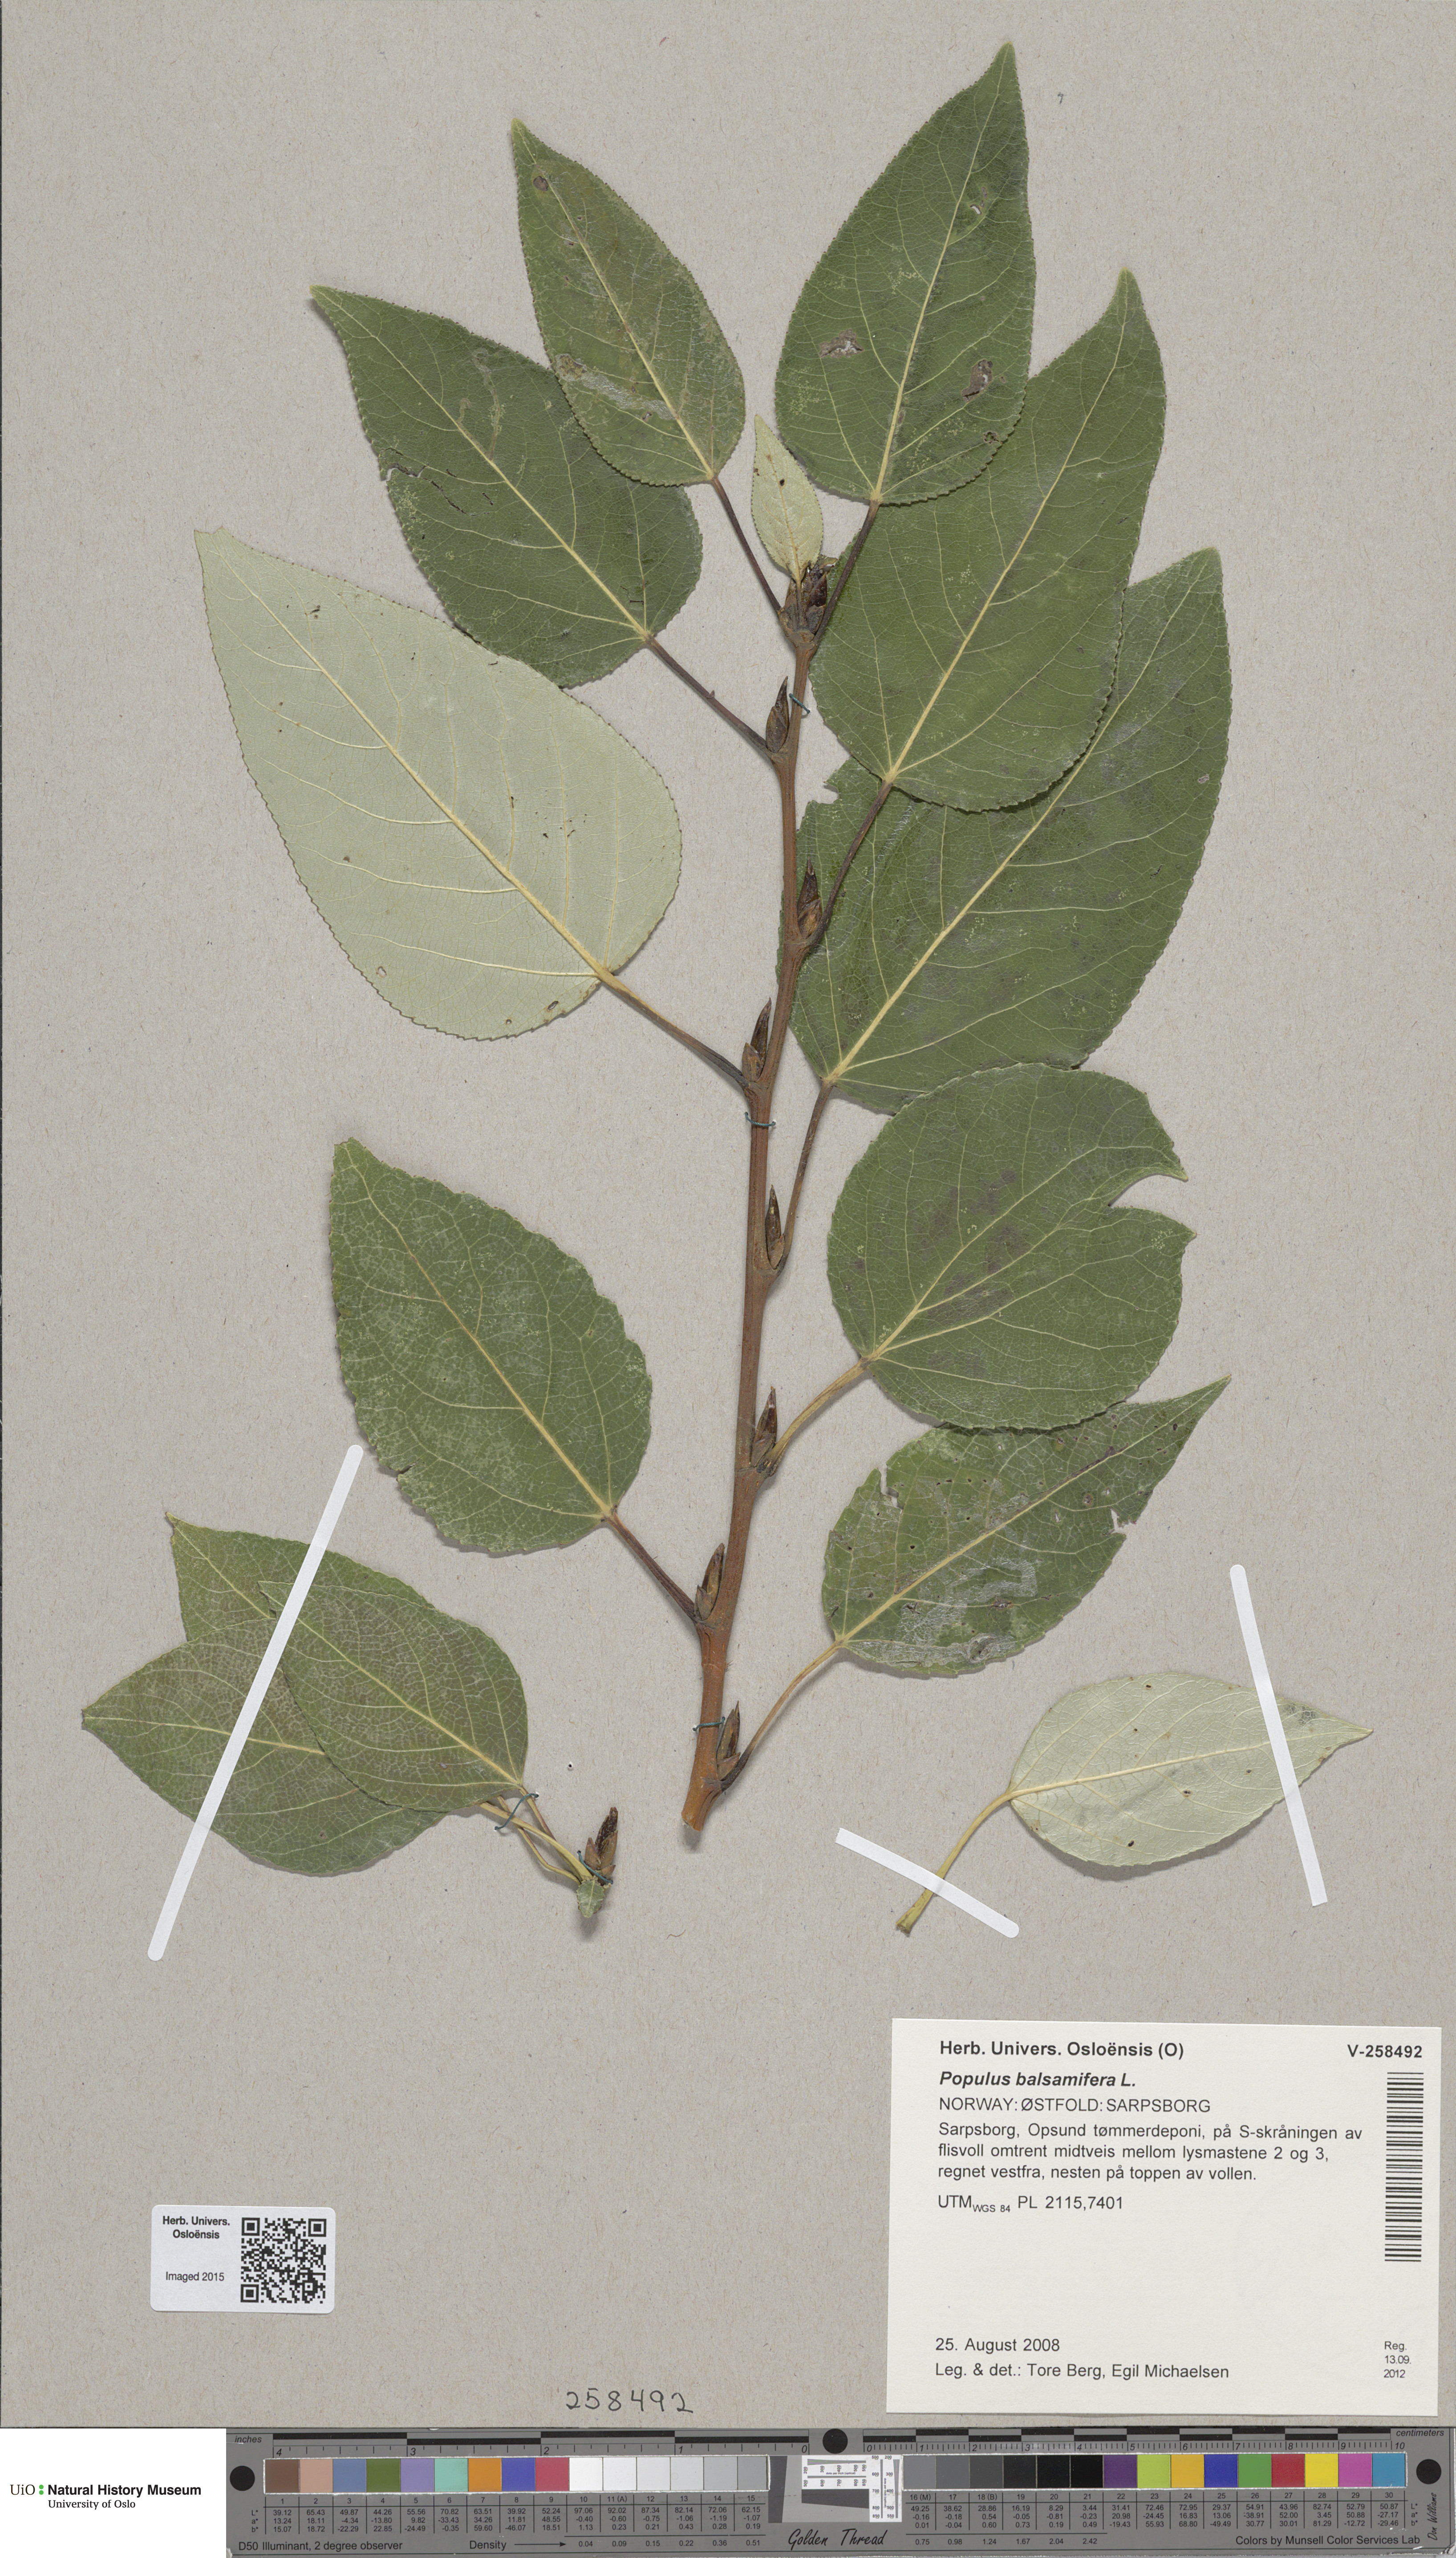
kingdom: Plantae
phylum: Tracheophyta
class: Magnoliopsida
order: Malpighiales
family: Salicaceae
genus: Populus
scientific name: Populus trichocarpa
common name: Black cottonwood
